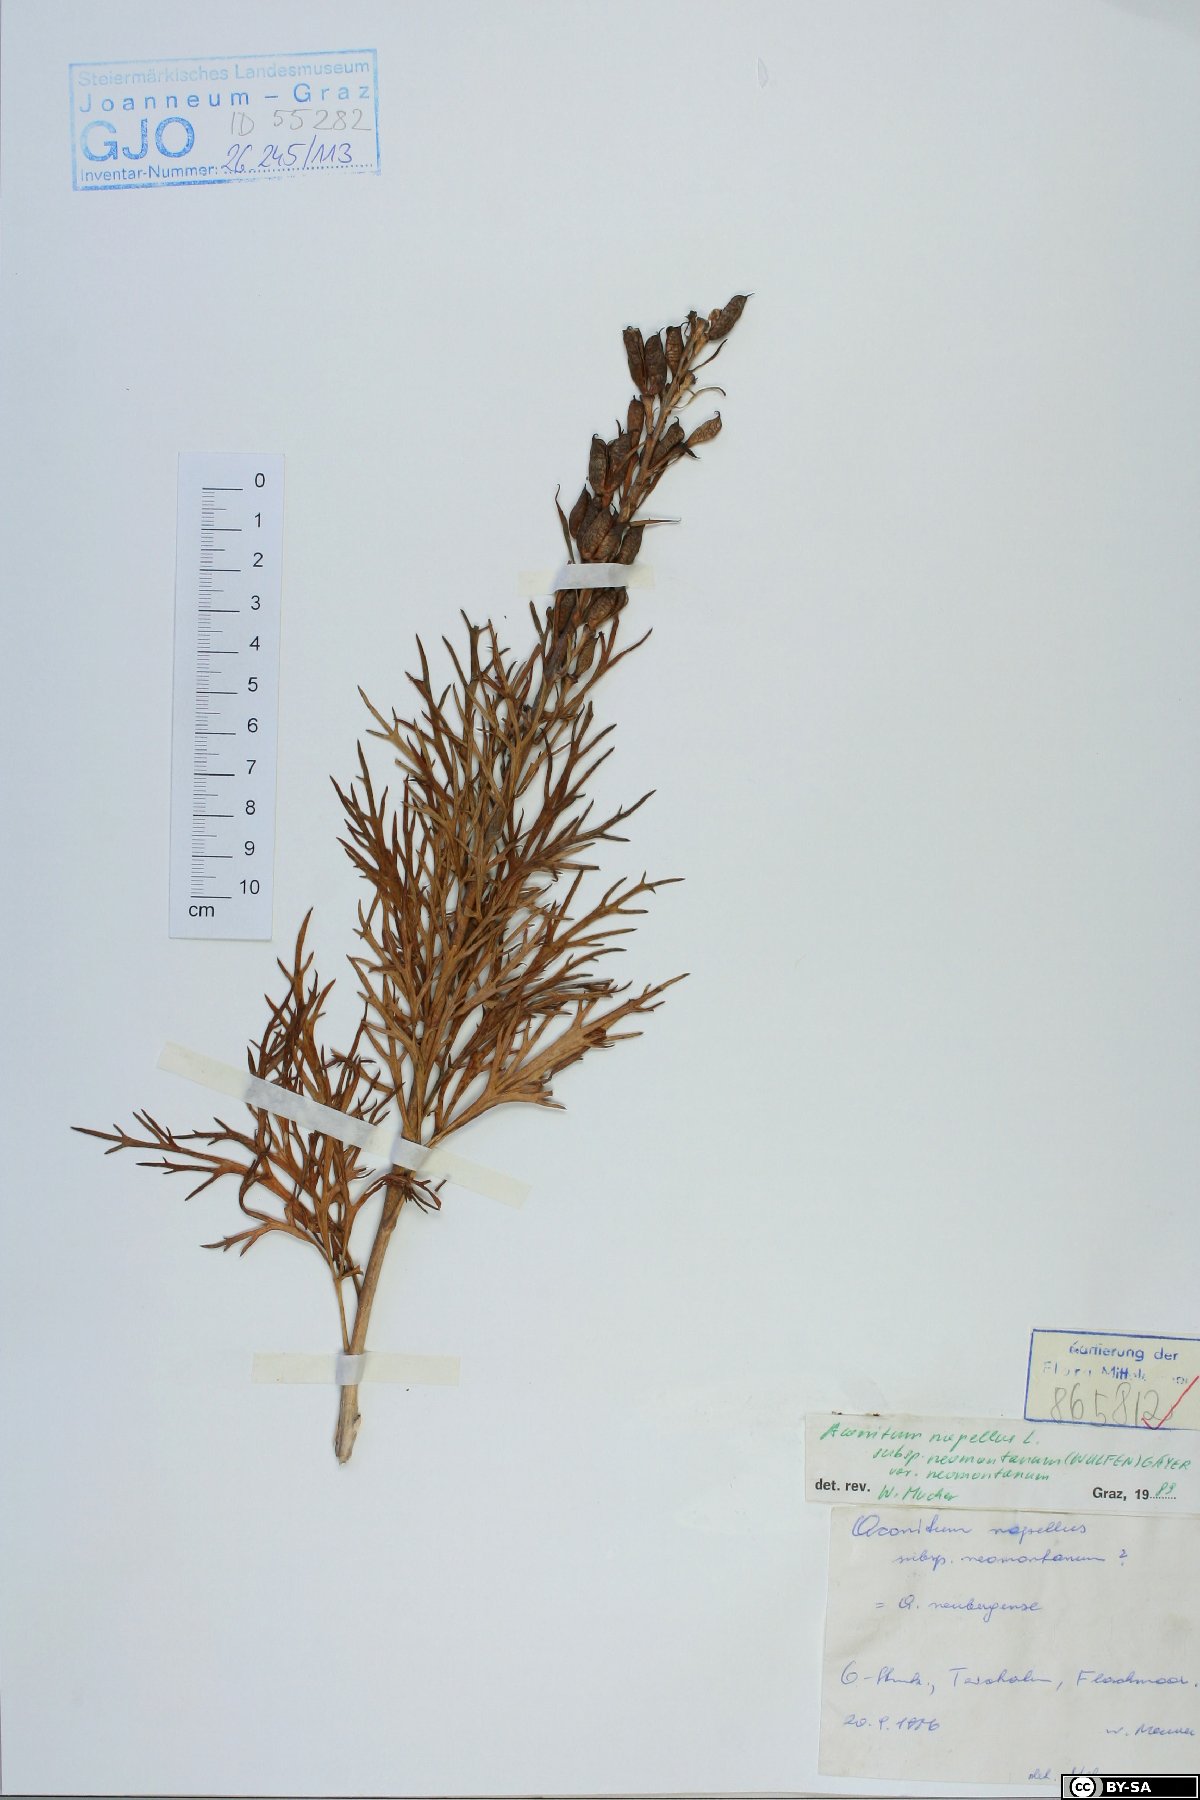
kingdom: Plantae
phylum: Tracheophyta
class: Magnoliopsida
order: Ranunculales
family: Ranunculaceae
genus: Aconitum
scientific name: Aconitum napellus
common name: Garden monkshood
